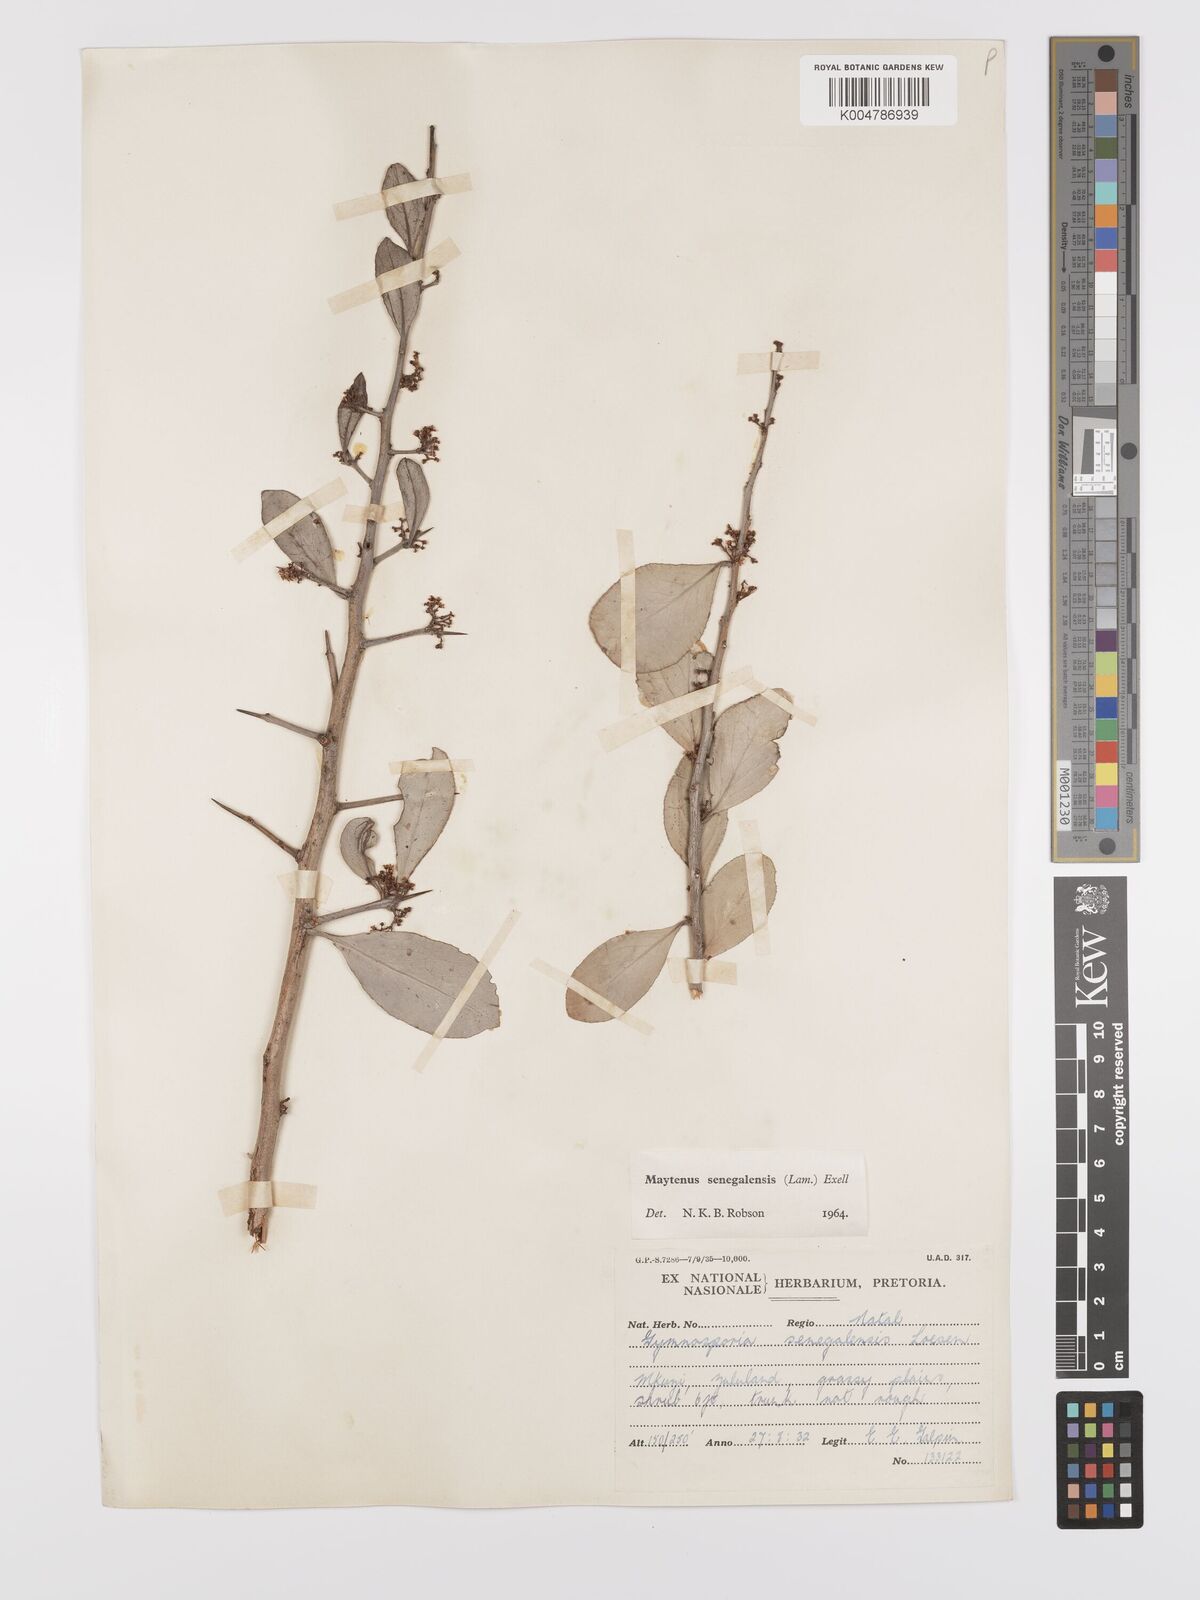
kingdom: Plantae
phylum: Tracheophyta
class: Magnoliopsida
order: Celastrales
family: Celastraceae
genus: Gymnosporia
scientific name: Gymnosporia senegalensis
